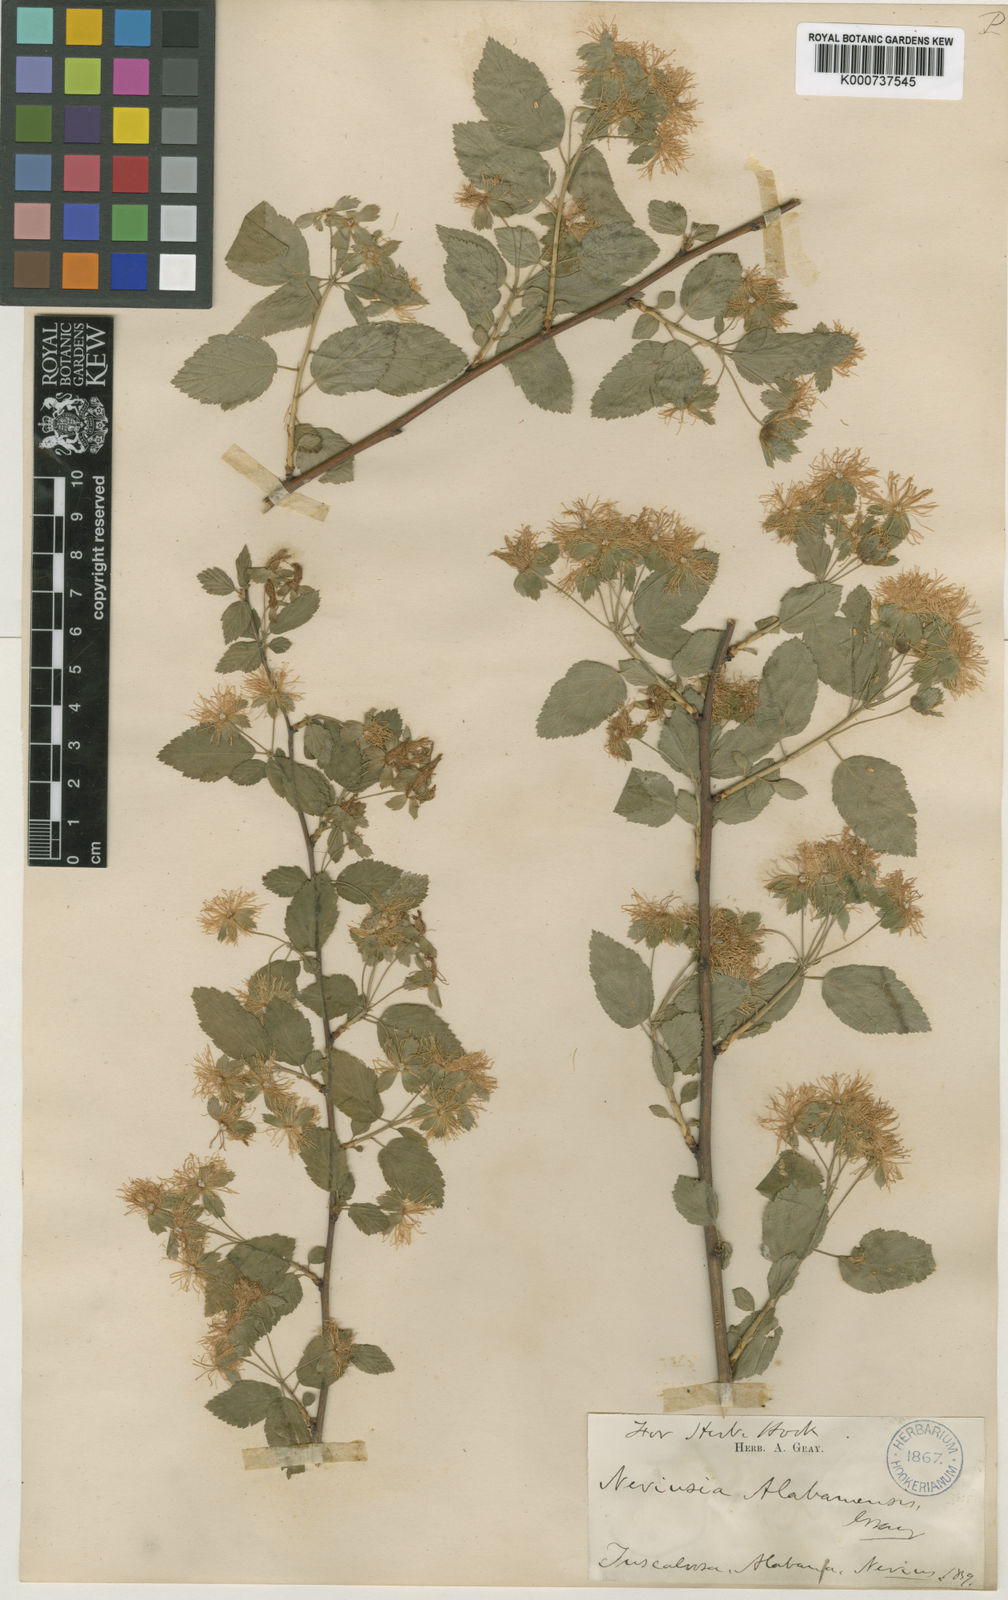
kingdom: Plantae
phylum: Tracheophyta
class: Magnoliopsida
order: Rosales
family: Rosaceae
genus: Neviusia
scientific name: Neviusia alabamensis
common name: Snow-wreath
